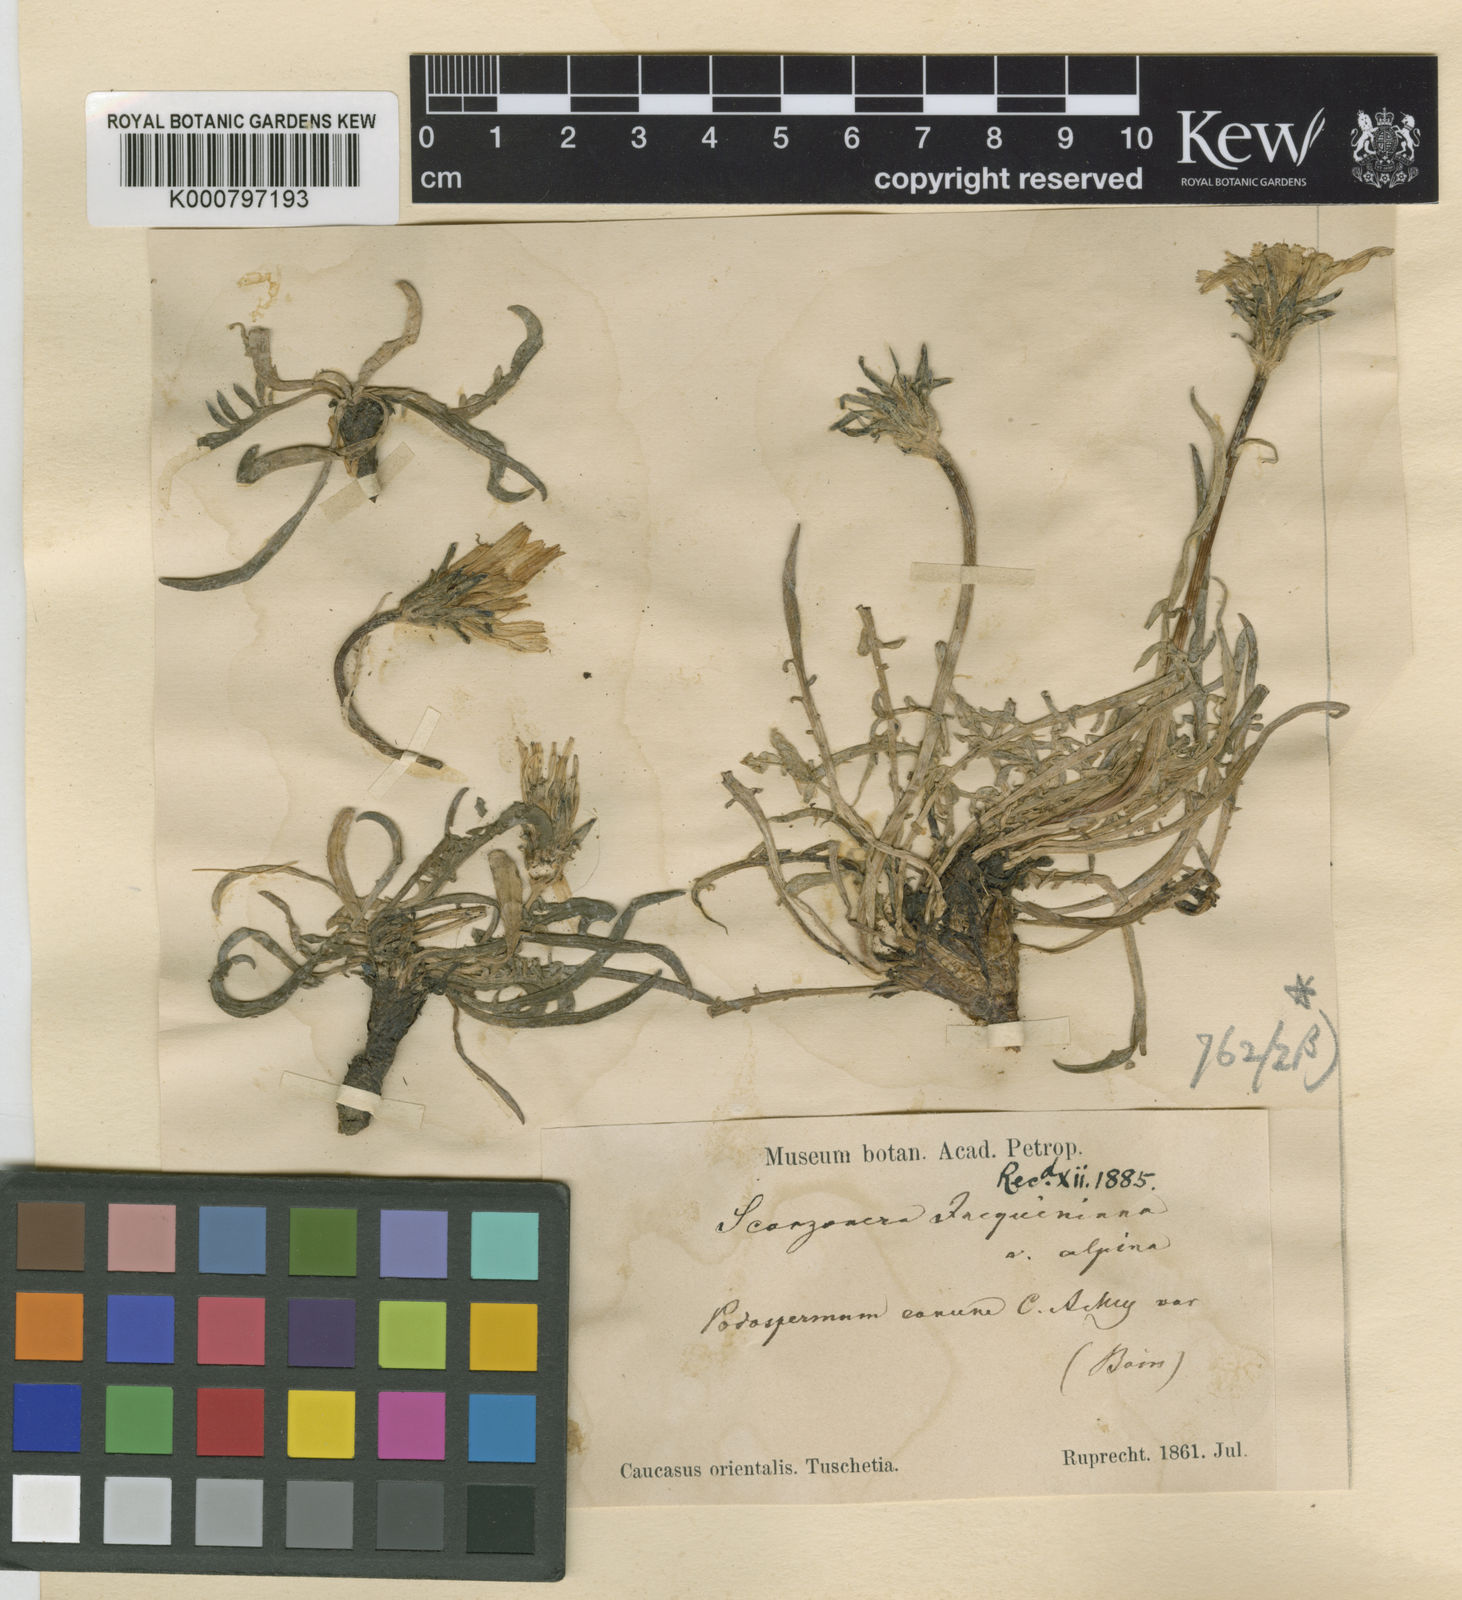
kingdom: Plantae
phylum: Tracheophyta
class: Magnoliopsida
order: Asterales
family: Asteraceae
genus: Scorzonera
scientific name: Scorzonera cana
